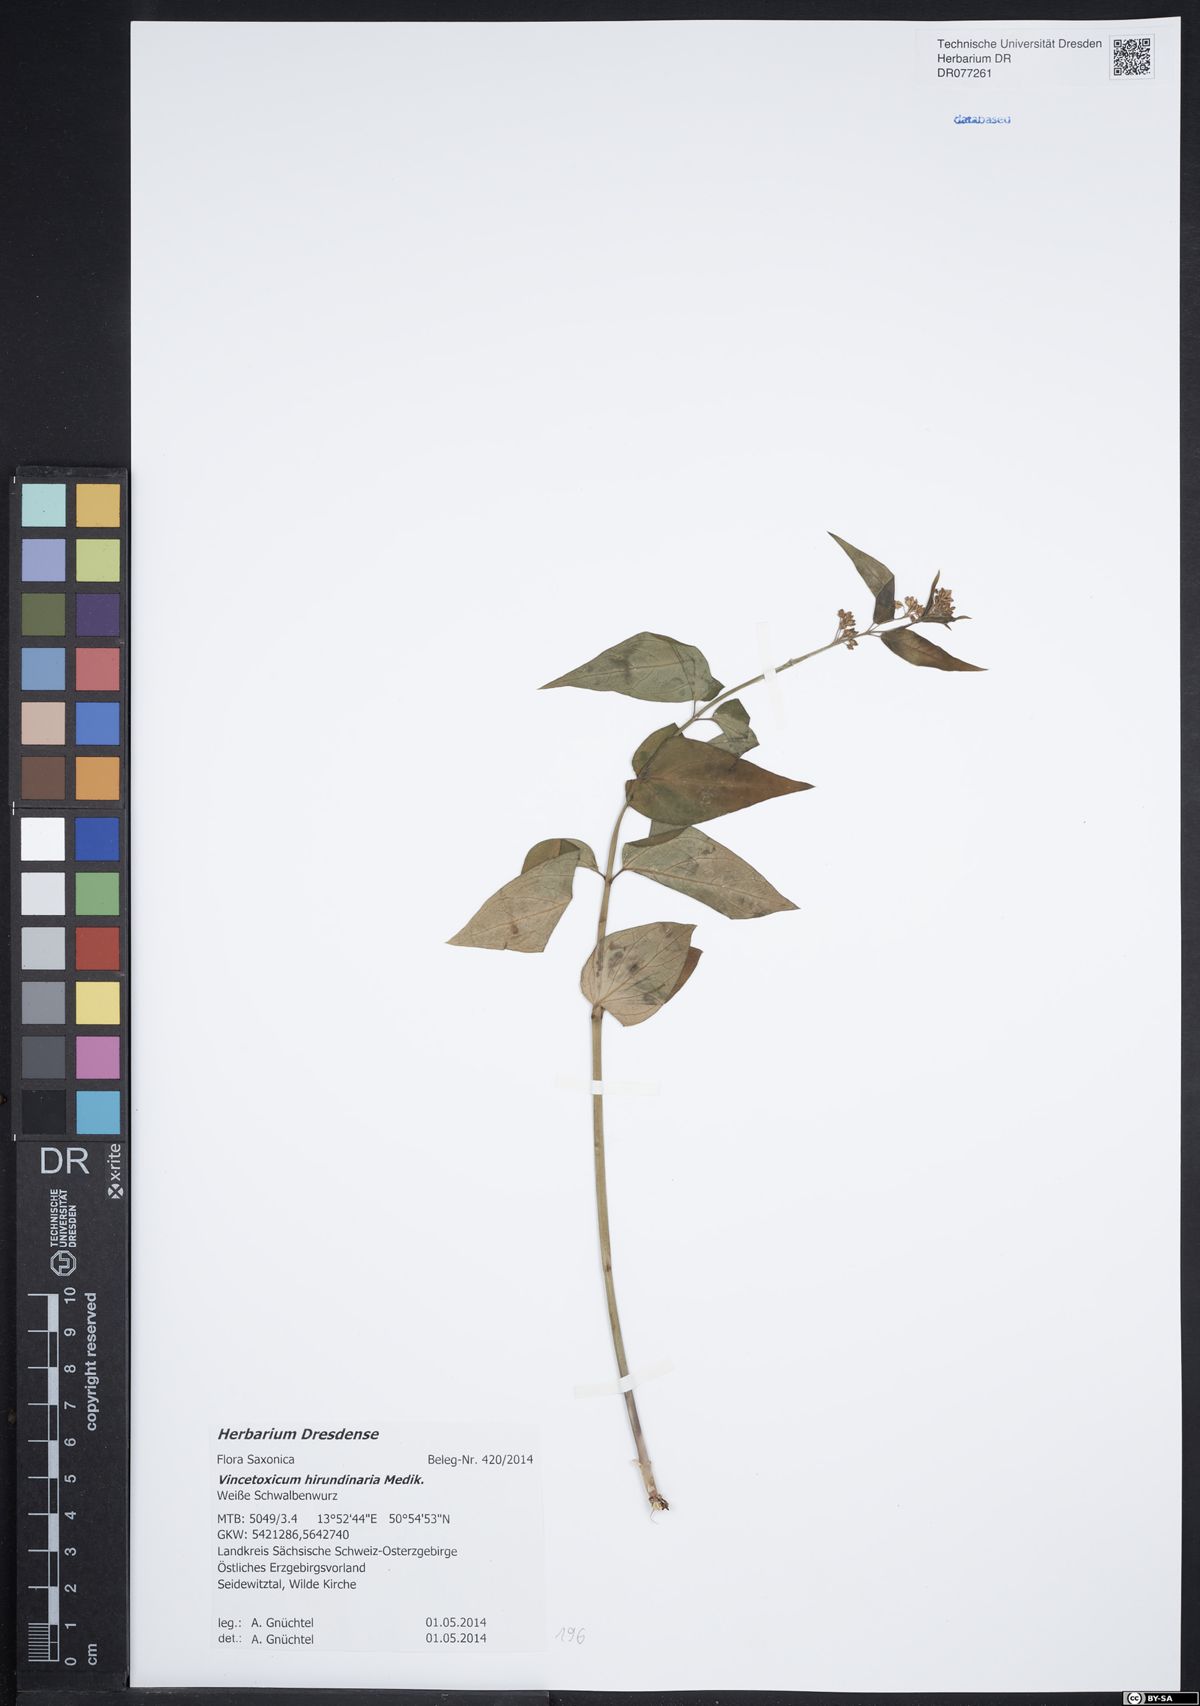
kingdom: Plantae
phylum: Tracheophyta
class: Magnoliopsida
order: Gentianales
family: Apocynaceae
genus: Vincetoxicum
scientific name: Vincetoxicum hirundinaria
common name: White swallowwort
